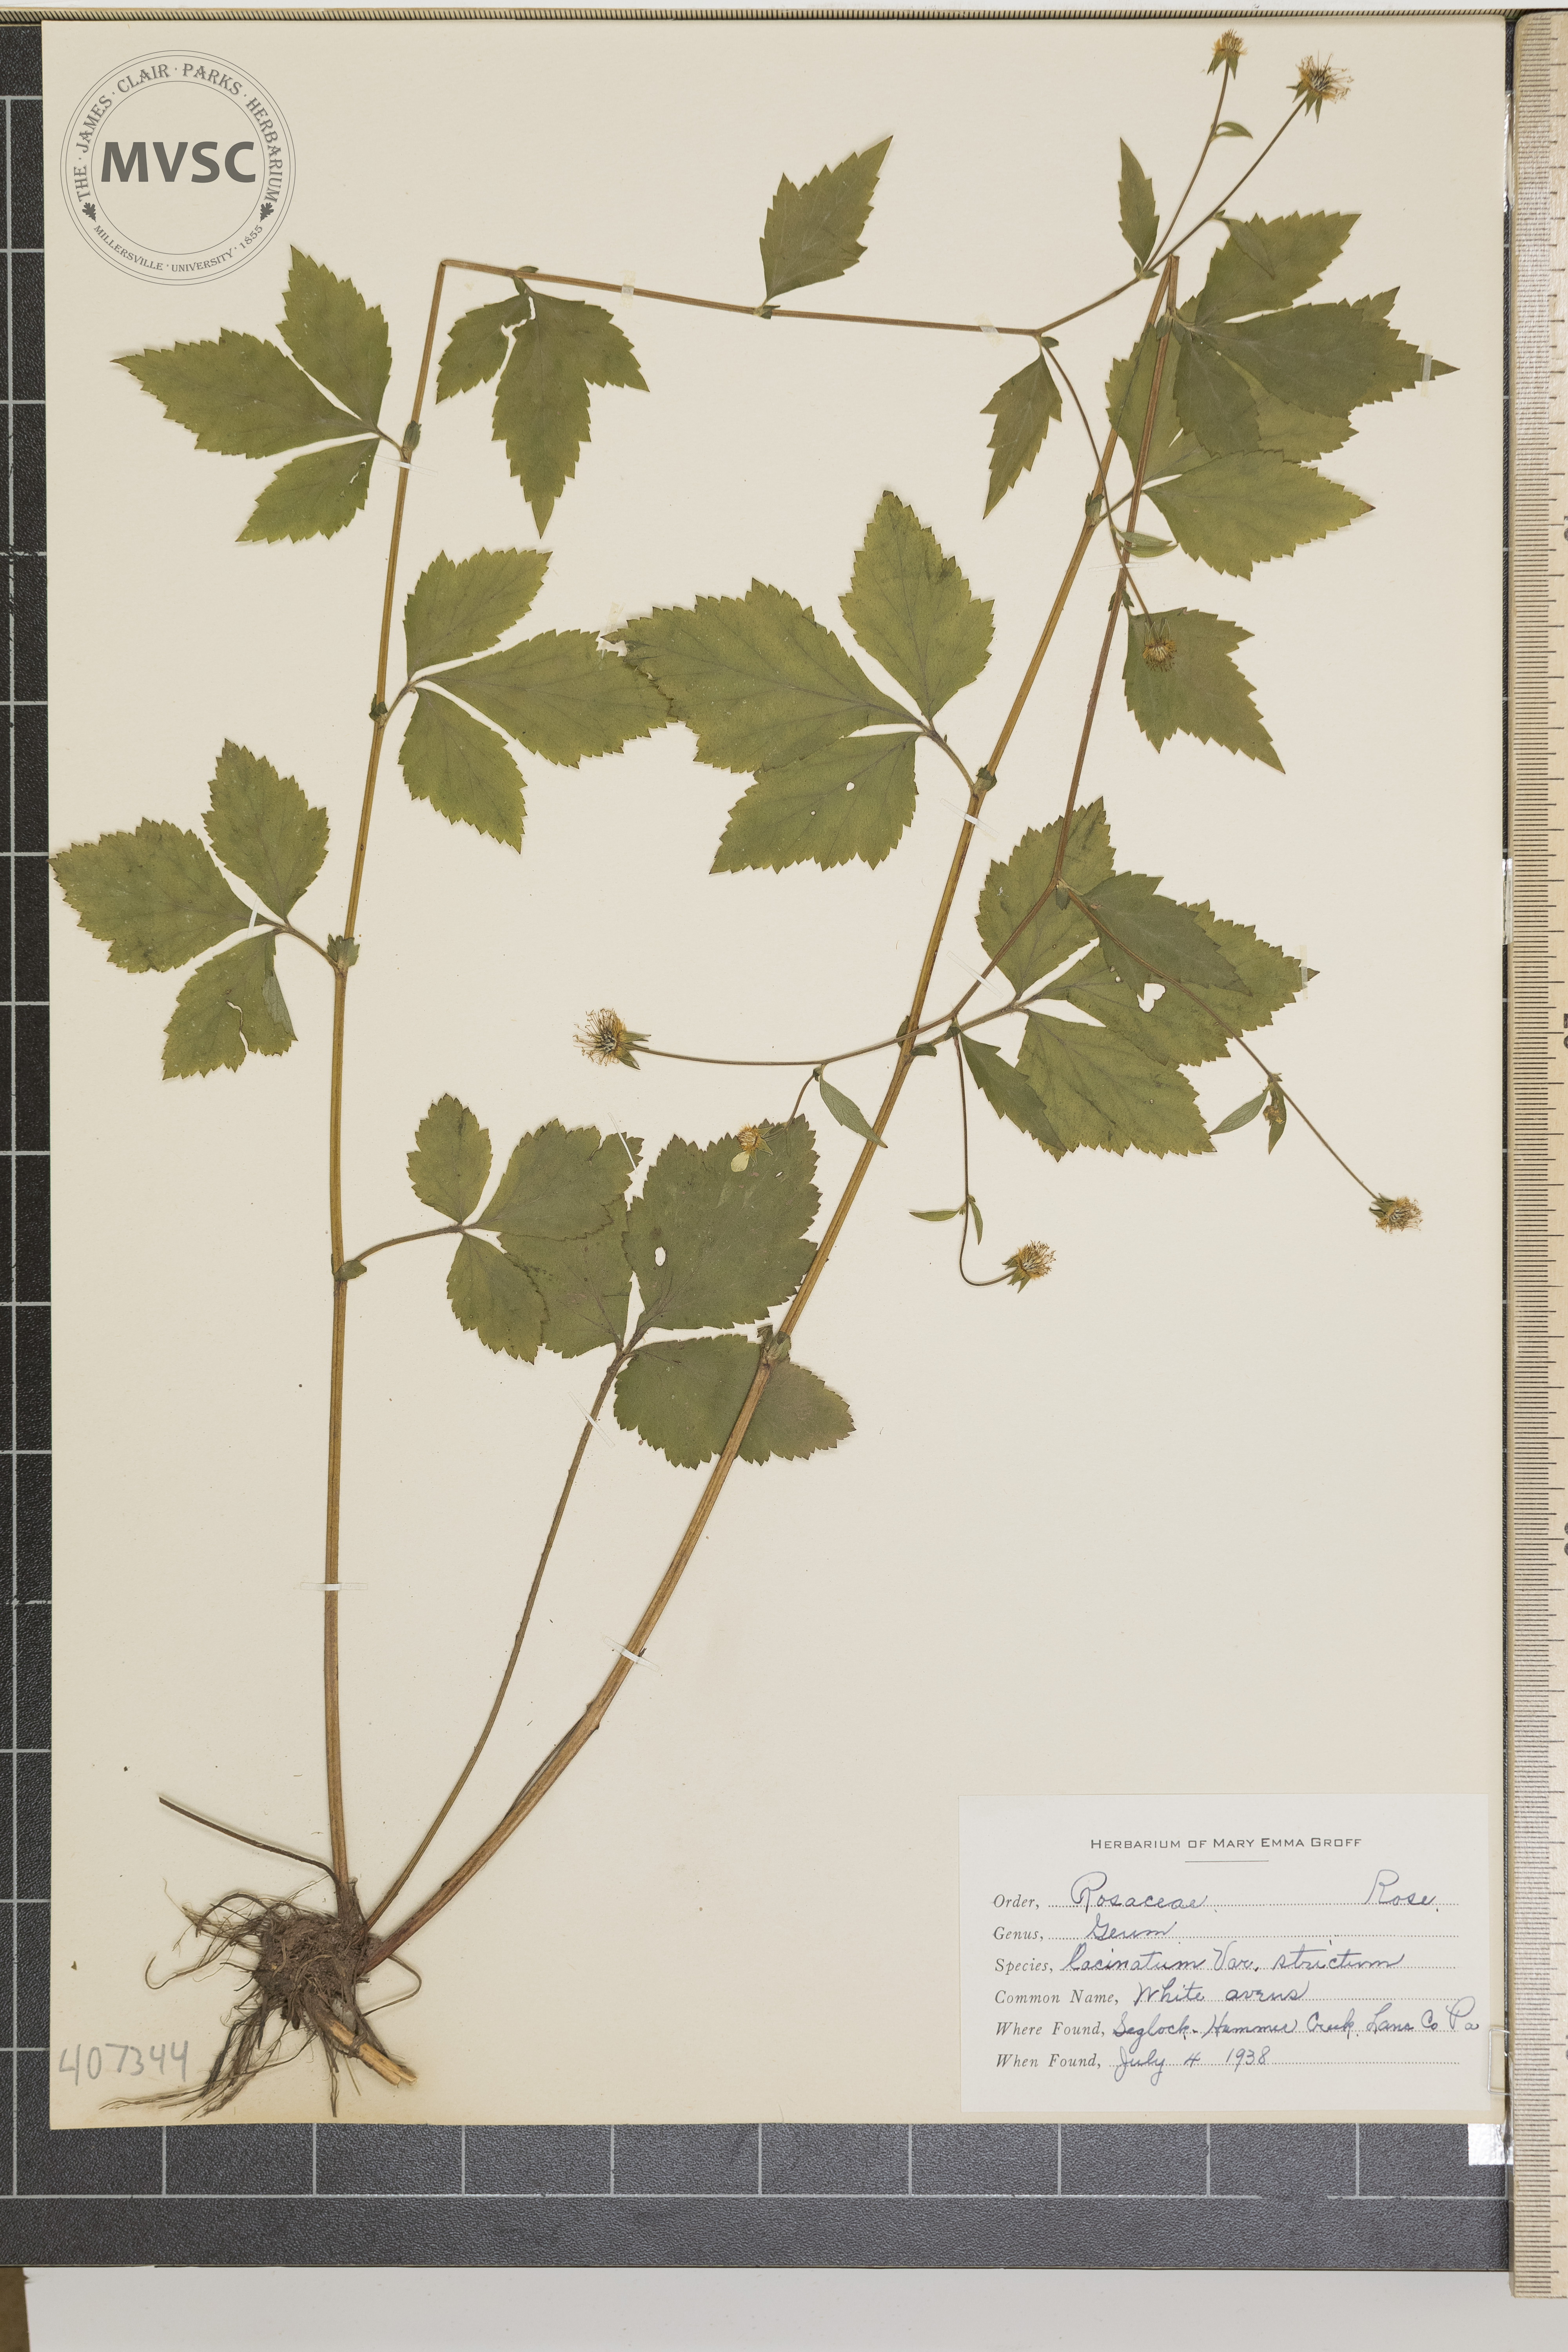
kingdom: Plantae
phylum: Tracheophyta
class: Magnoliopsida
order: Rosales
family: Rosaceae
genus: Geum
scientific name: Geum laciniatum
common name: White Avens
